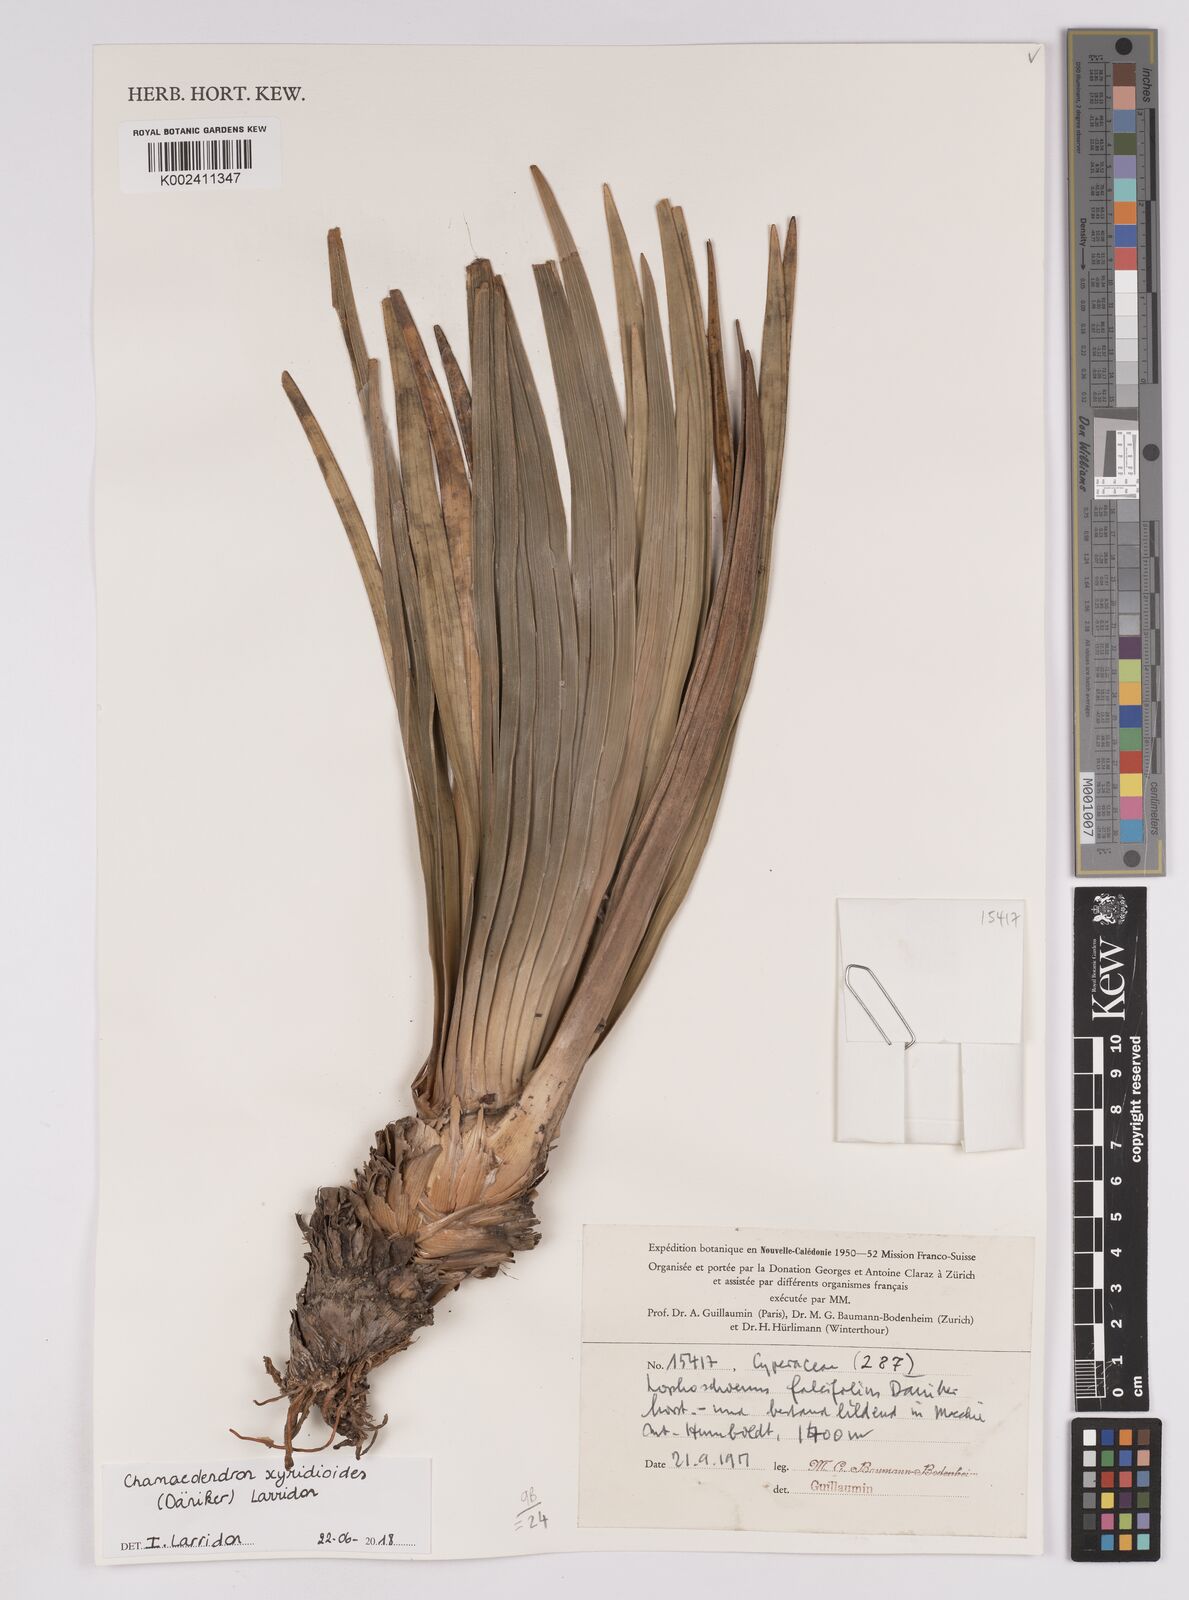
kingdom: Plantae
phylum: Tracheophyta
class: Liliopsida
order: Poales
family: Cyperaceae
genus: Chamaedendron
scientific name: Chamaedendron xyridioides
